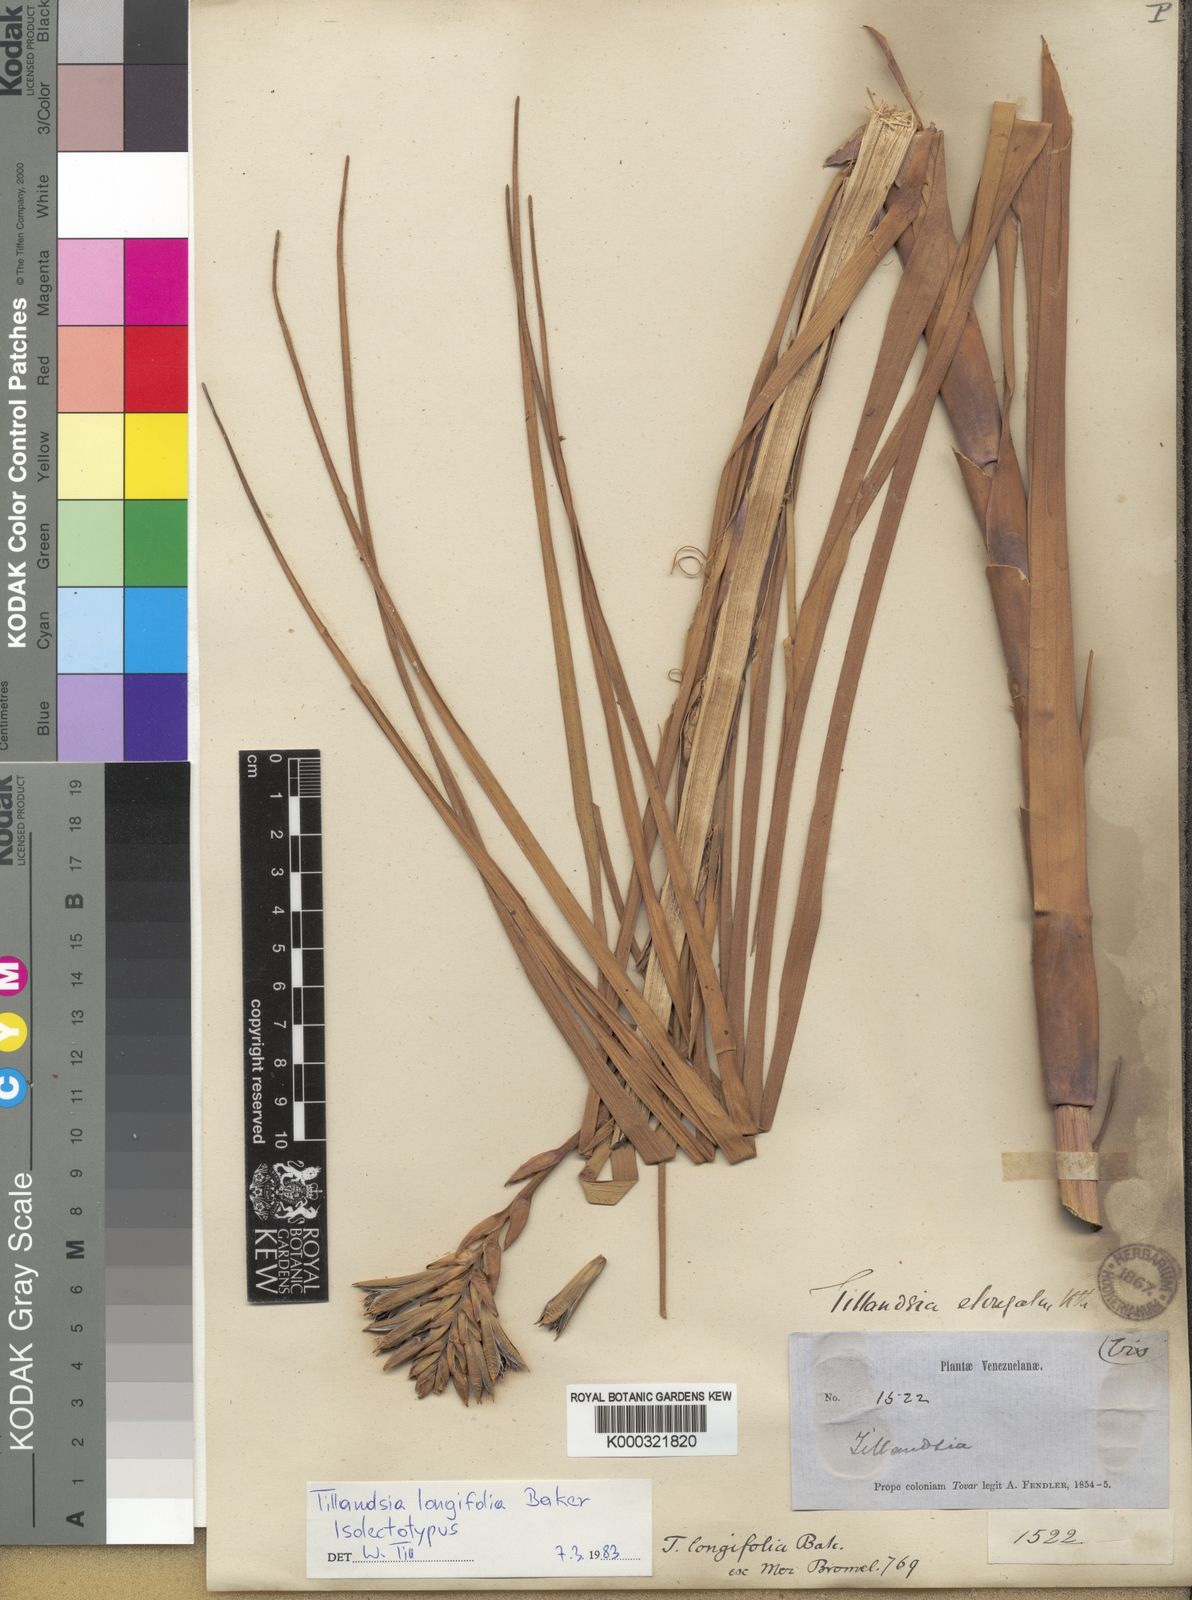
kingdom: Plantae
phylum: Tracheophyta
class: Liliopsida
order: Poales
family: Bromeliaceae
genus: Tillandsia
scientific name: Tillandsia longifolia
